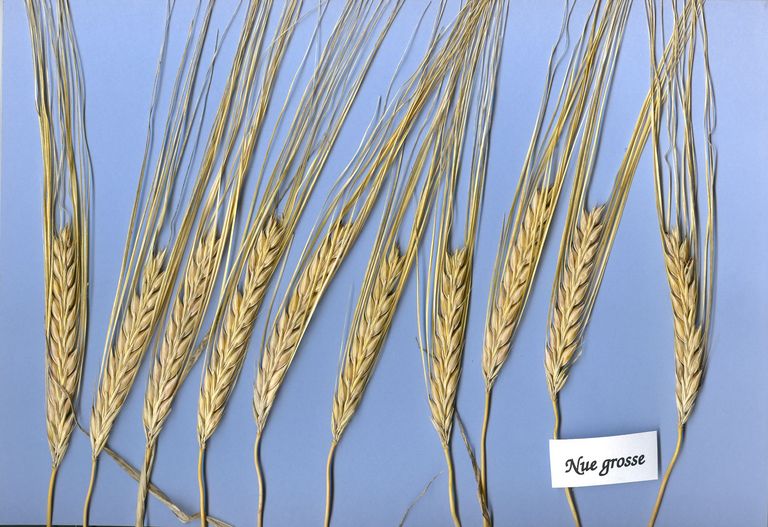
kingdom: Plantae
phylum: Tracheophyta
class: Liliopsida
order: Poales
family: Poaceae
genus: Hordeum
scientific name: Hordeum vulgare
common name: Common barley
